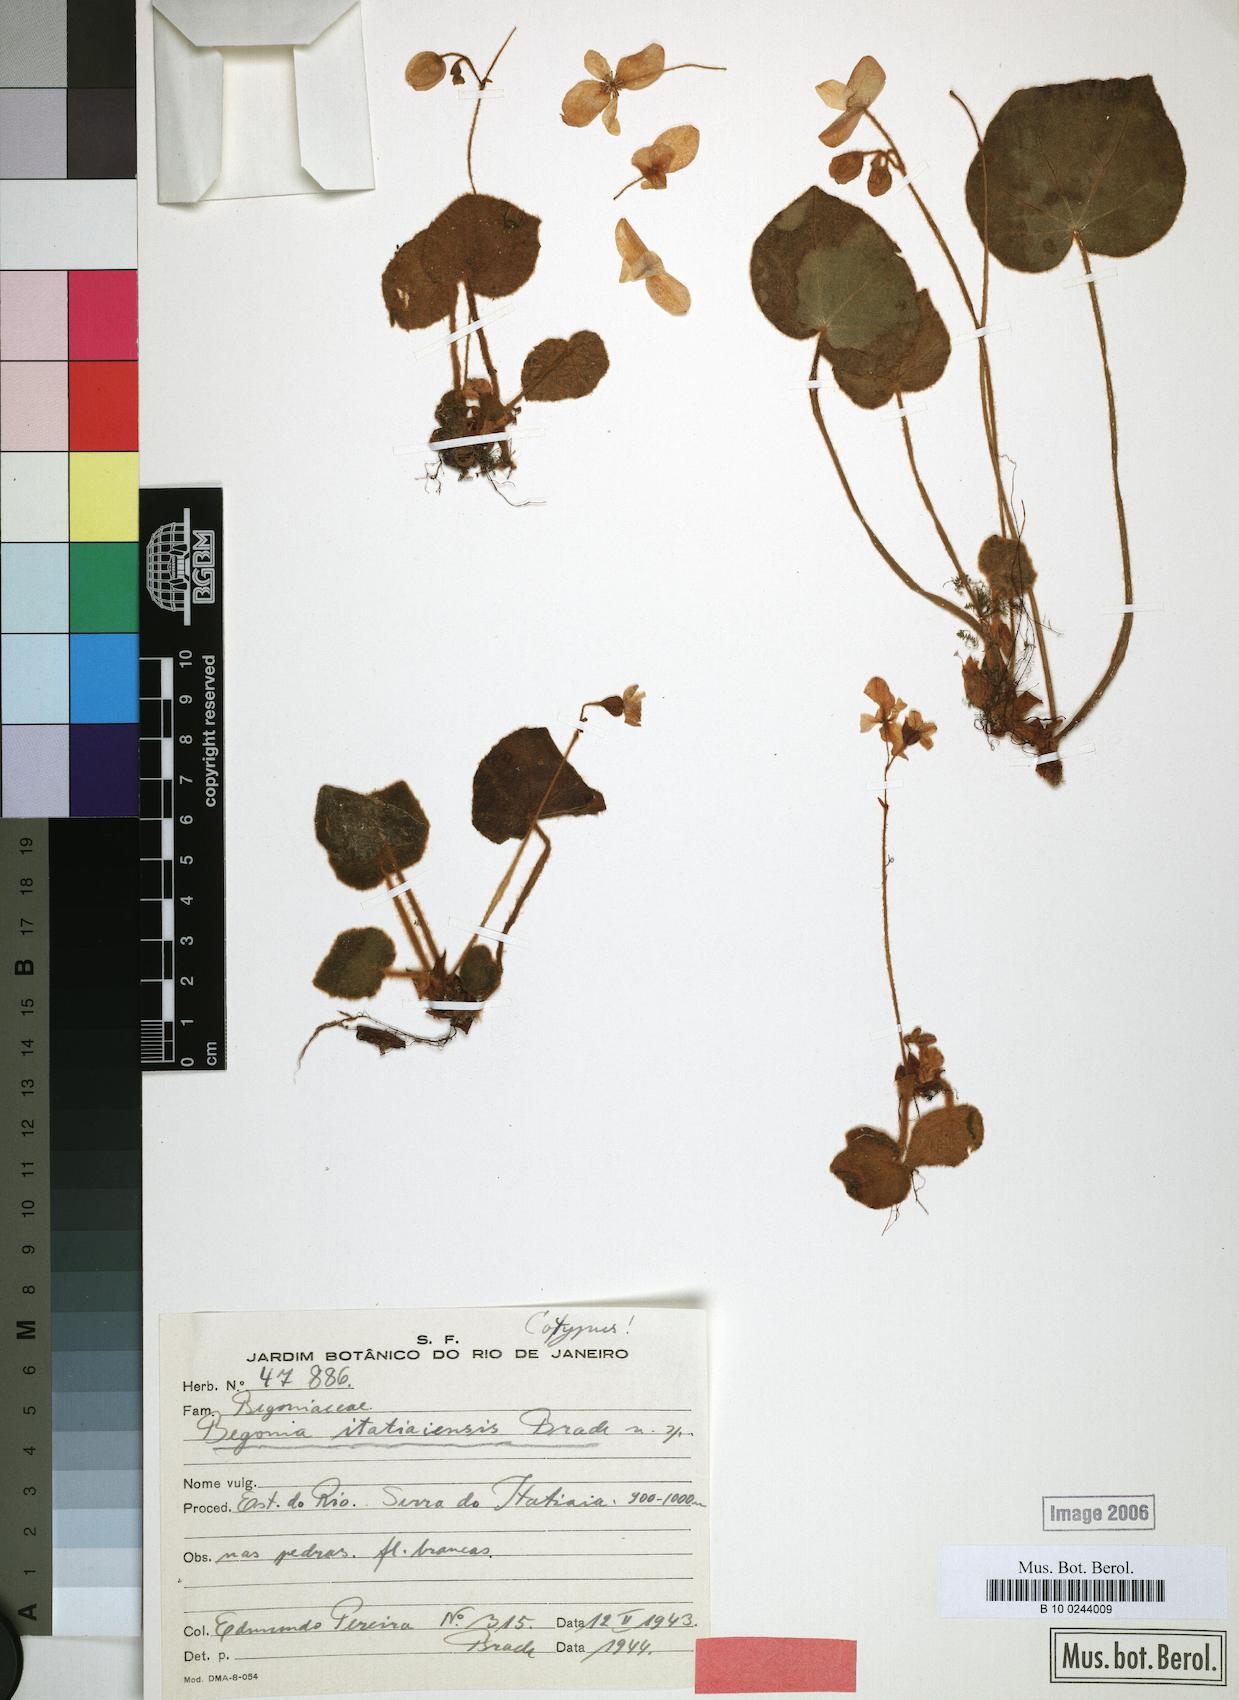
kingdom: Plantae
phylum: Tracheophyta
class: Magnoliopsida
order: Cucurbitales
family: Begoniaceae
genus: Begonia
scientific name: Begonia itatiaiensis
